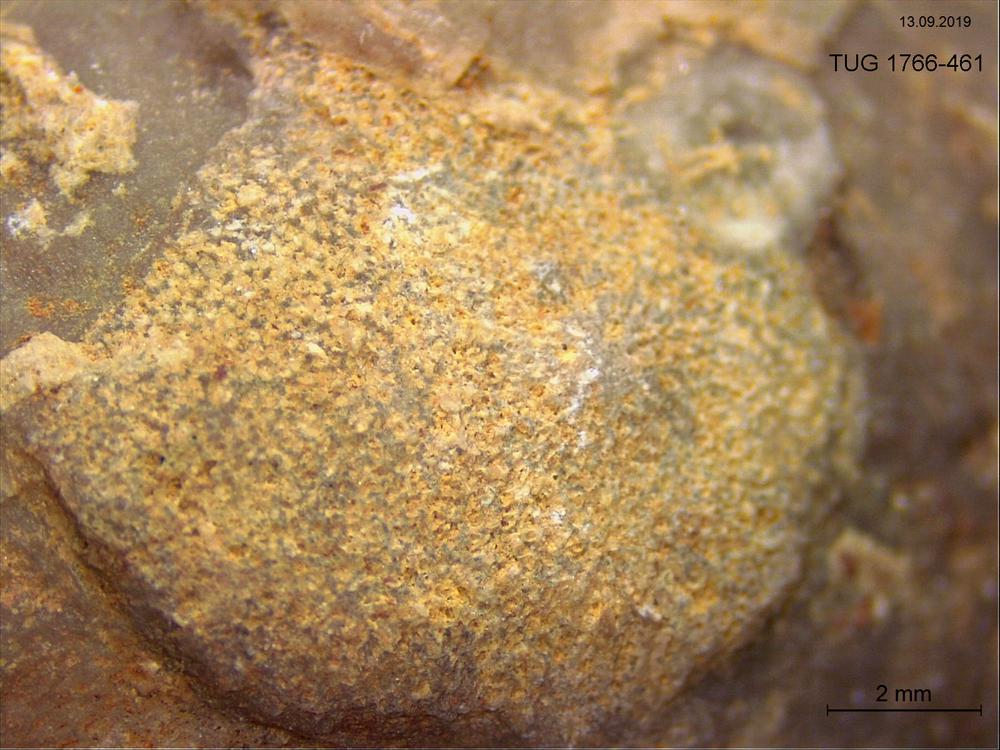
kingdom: Animalia
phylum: Bryozoa
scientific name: Bryozoa
